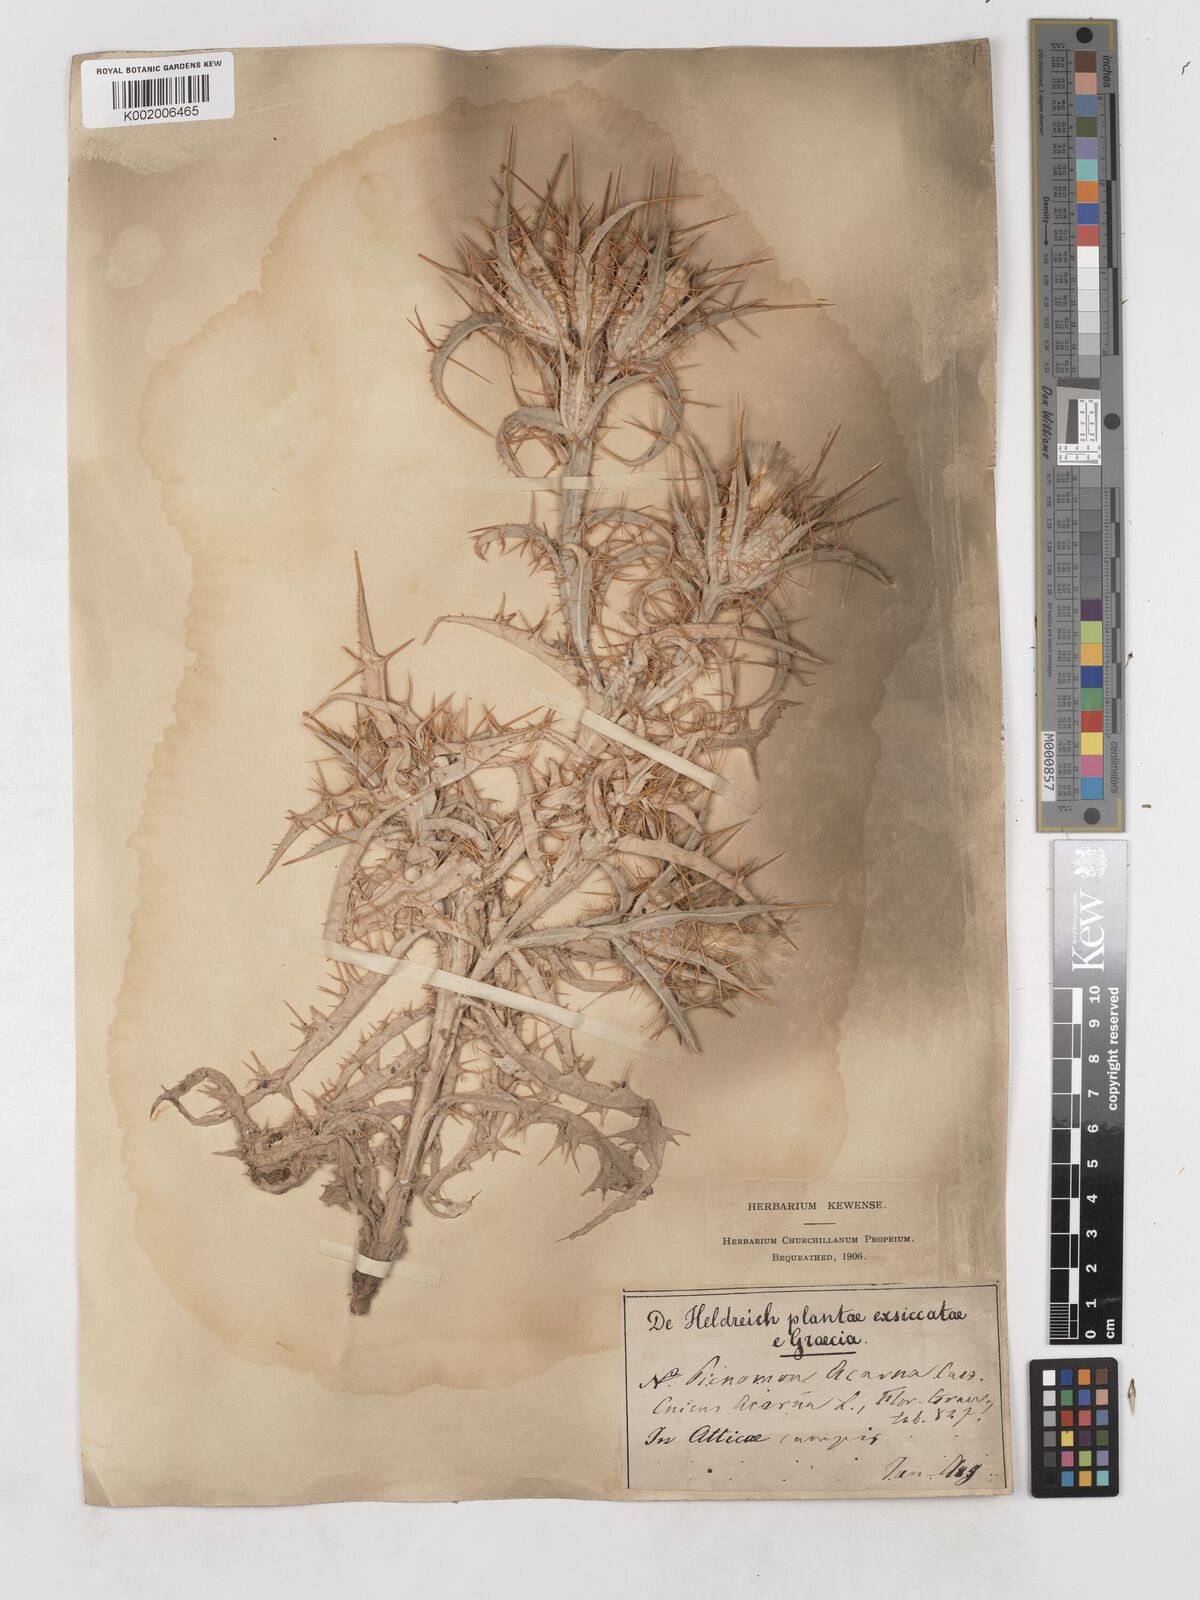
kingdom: Plantae
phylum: Tracheophyta
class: Magnoliopsida
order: Asterales
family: Asteraceae
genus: Picnomon
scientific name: Picnomon acarna
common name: Soldier thistle
